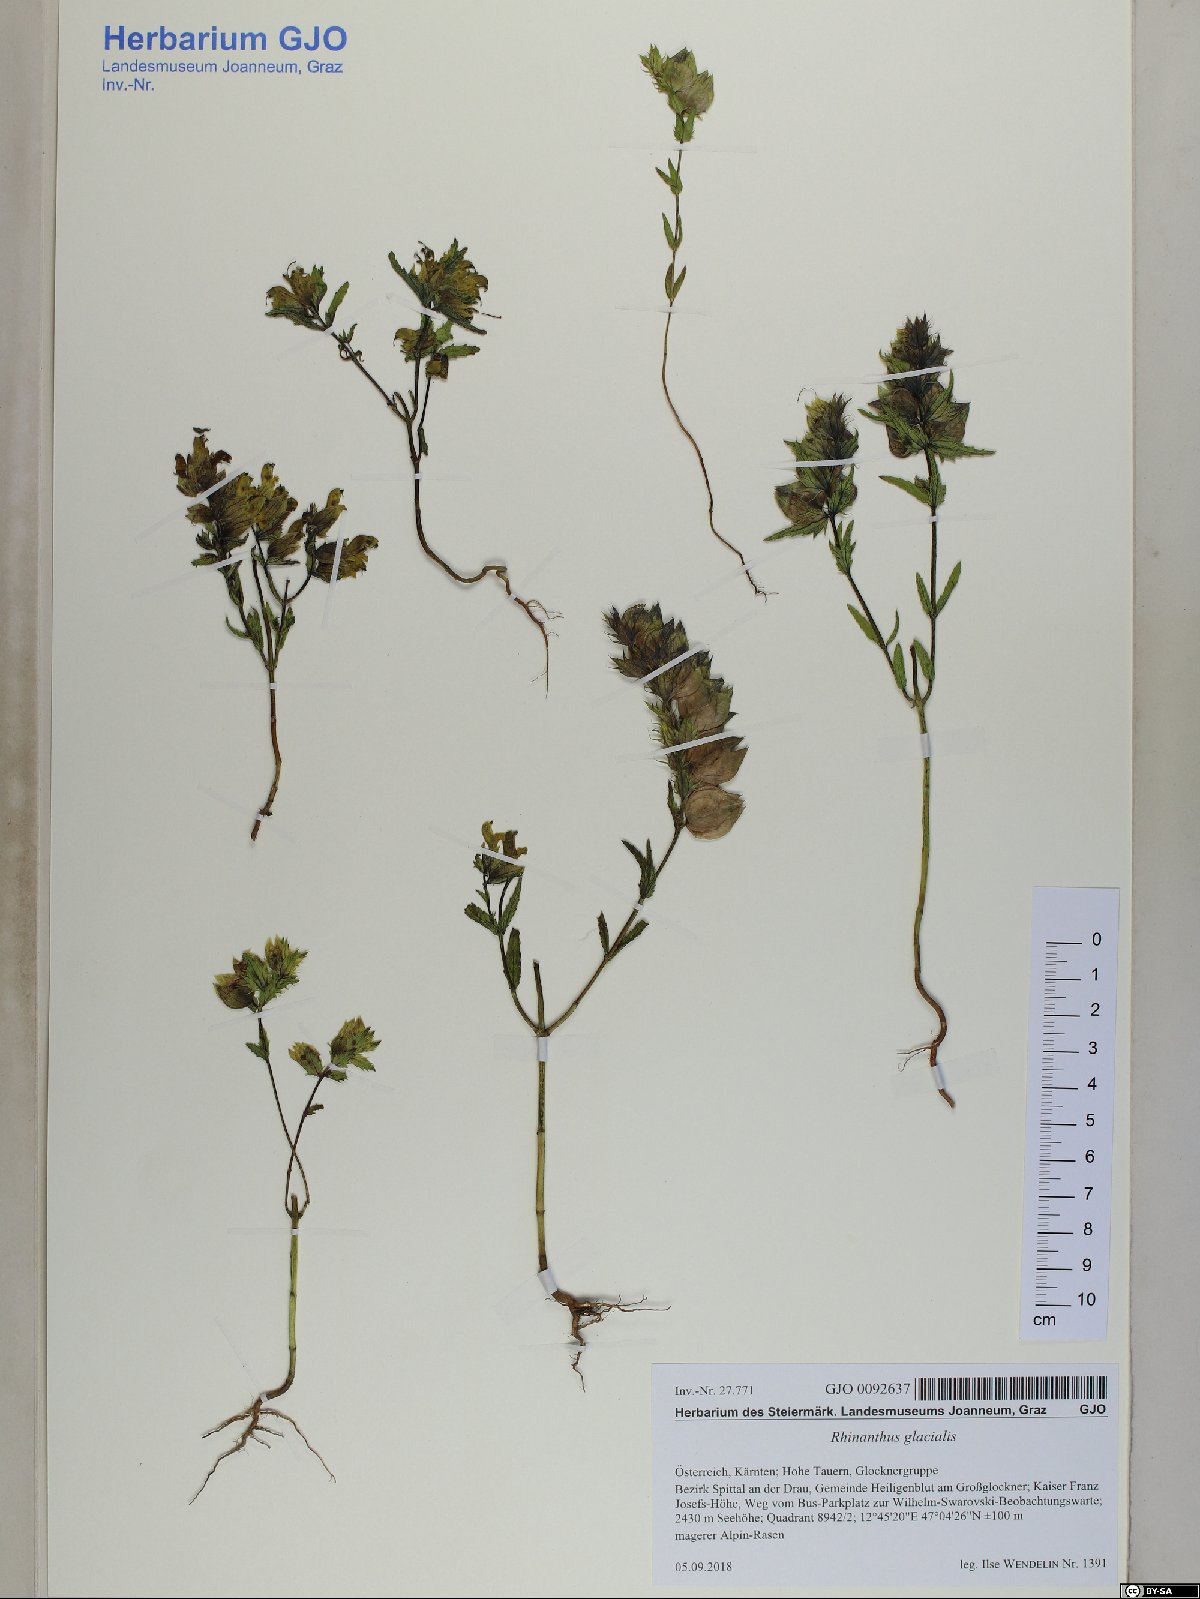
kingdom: Plantae
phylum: Tracheophyta
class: Magnoliopsida
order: Lamiales
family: Orobanchaceae
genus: Rhinanthus
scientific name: Rhinanthus glacialis
